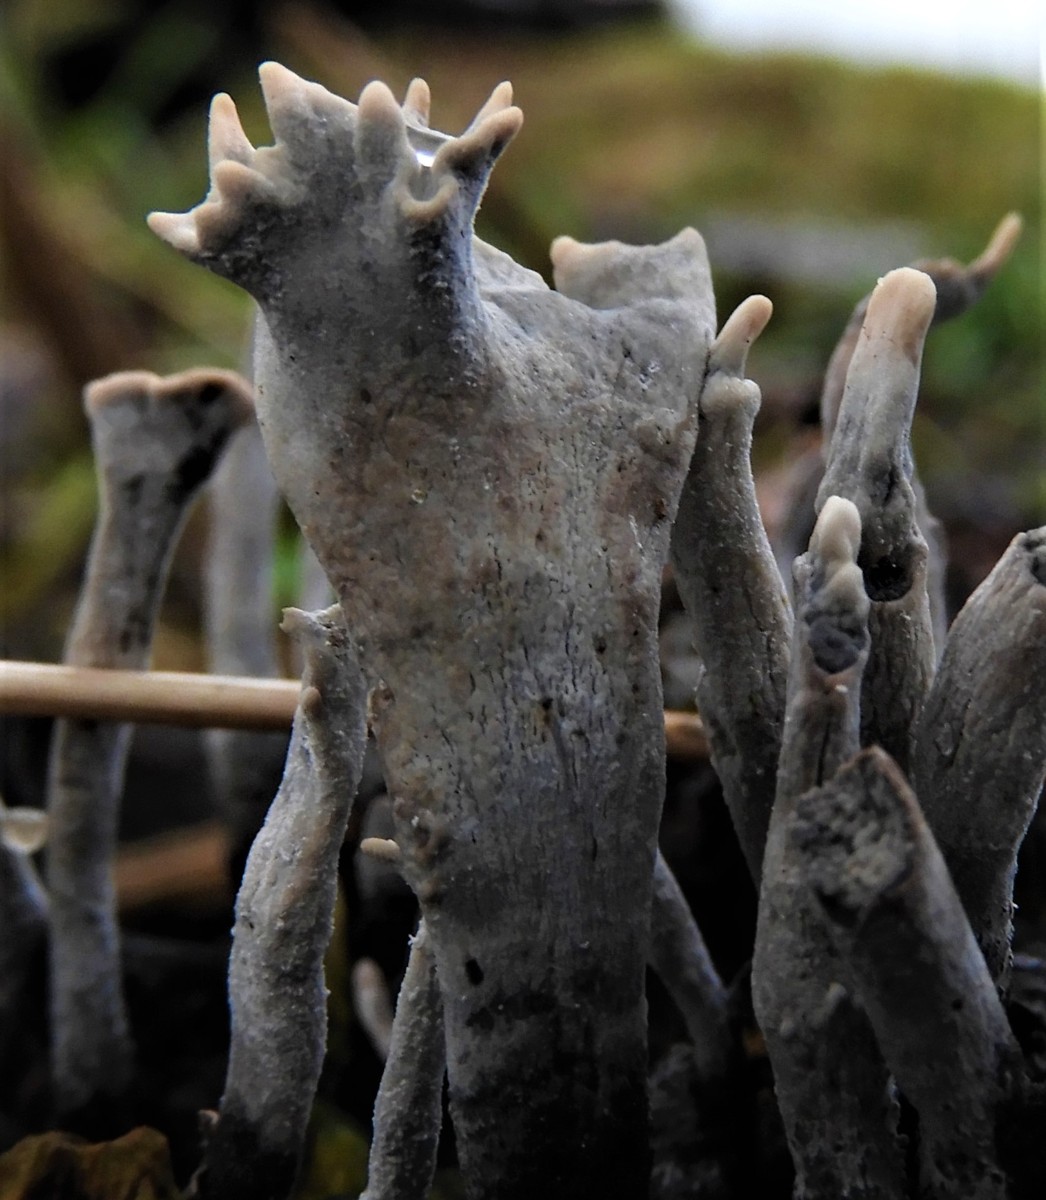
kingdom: Fungi
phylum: Ascomycota
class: Sordariomycetes
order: Xylariales
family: Xylariaceae
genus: Xylaria
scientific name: Xylaria hypoxylon
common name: grenet stødsvamp
